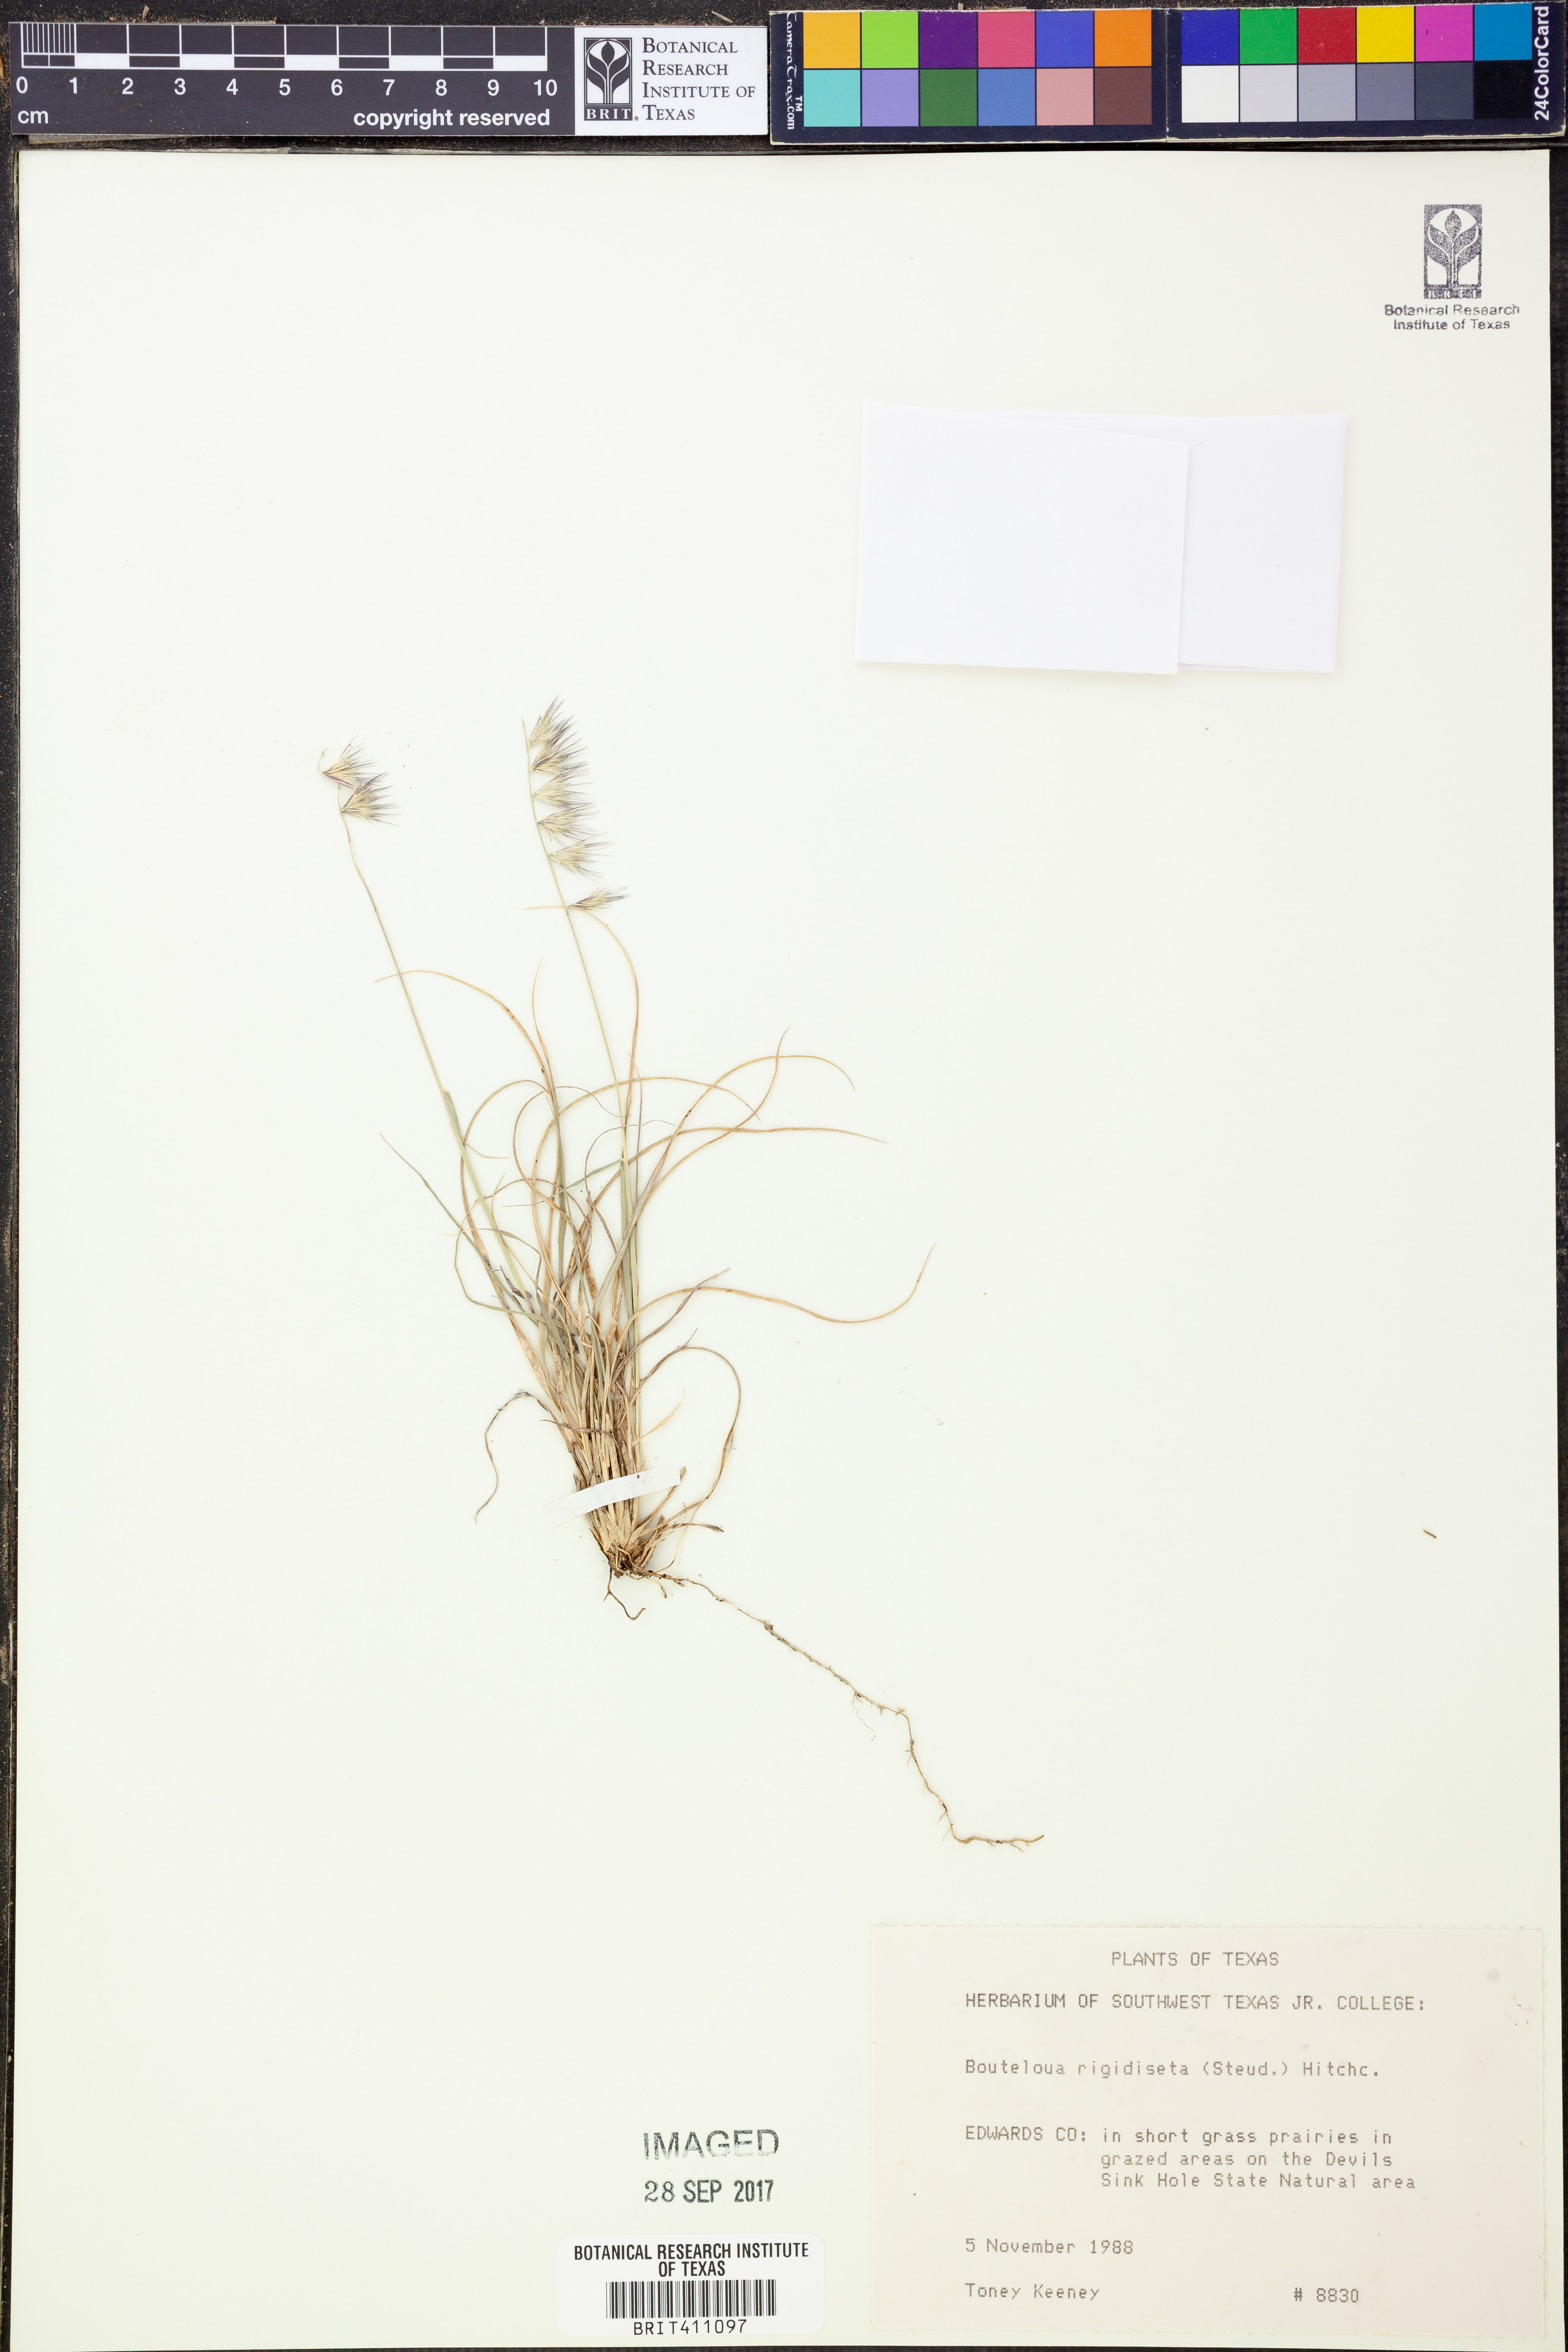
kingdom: Plantae
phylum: Tracheophyta
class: Liliopsida
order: Poales
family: Poaceae
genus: Bouteloua
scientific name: Bouteloua rigidiseta
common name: Texas grama
